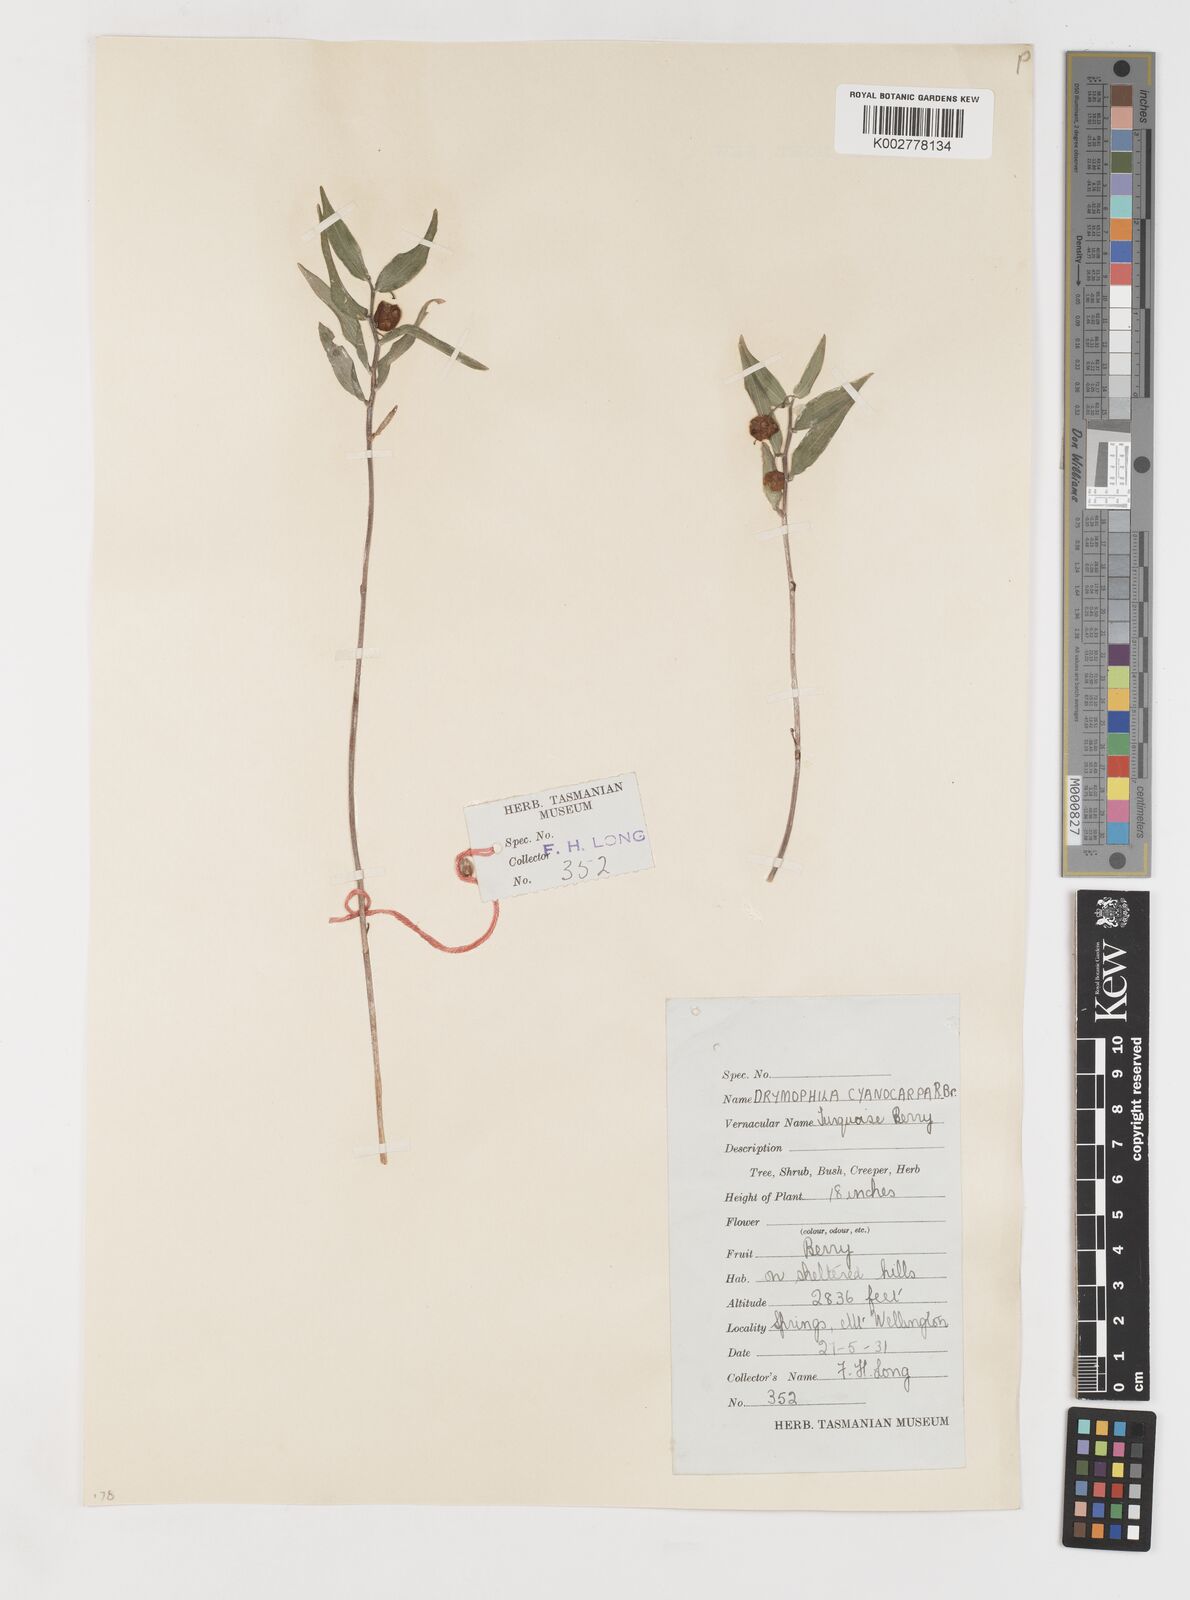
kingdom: Plantae
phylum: Tracheophyta
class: Liliopsida
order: Liliales
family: Alstroemeriaceae
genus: Drymophila
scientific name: Drymophila cyanocarpa
